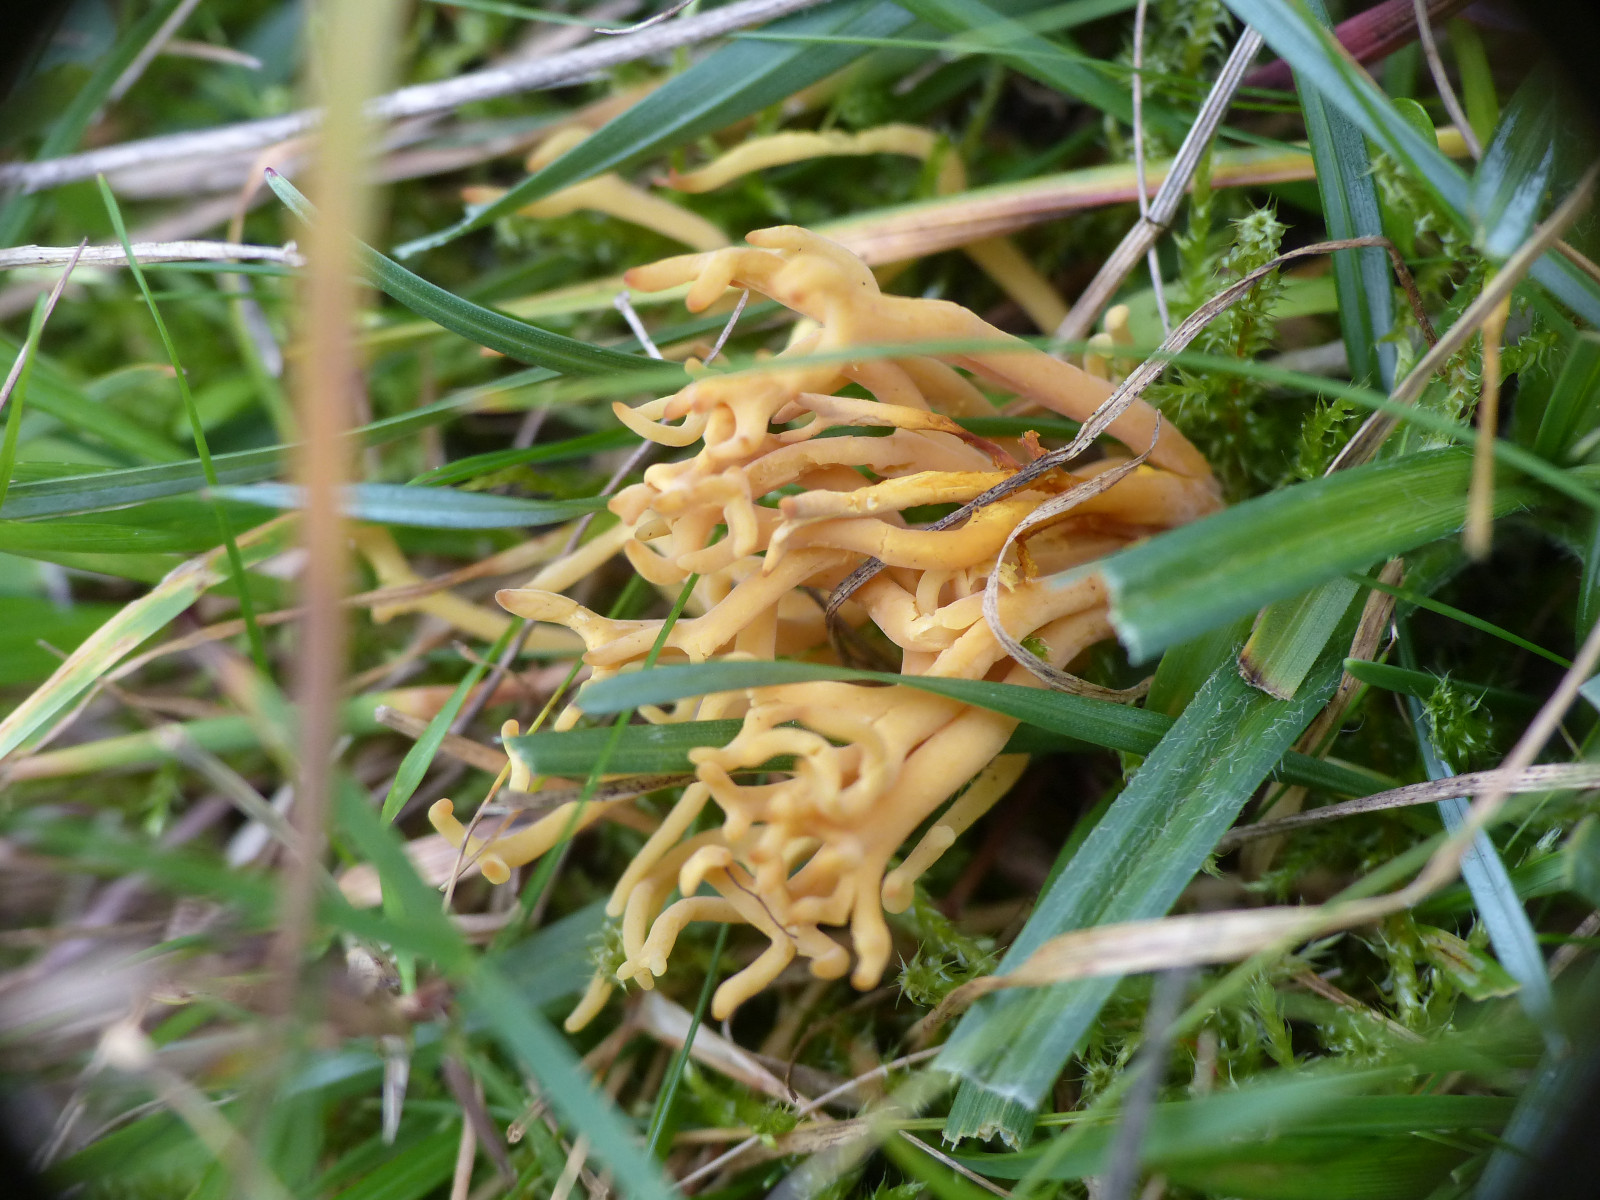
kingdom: Fungi
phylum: Basidiomycota
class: Agaricomycetes
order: Agaricales
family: Clavariaceae
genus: Clavulinopsis
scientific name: Clavulinopsis corniculata
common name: eng-køllesvamp
